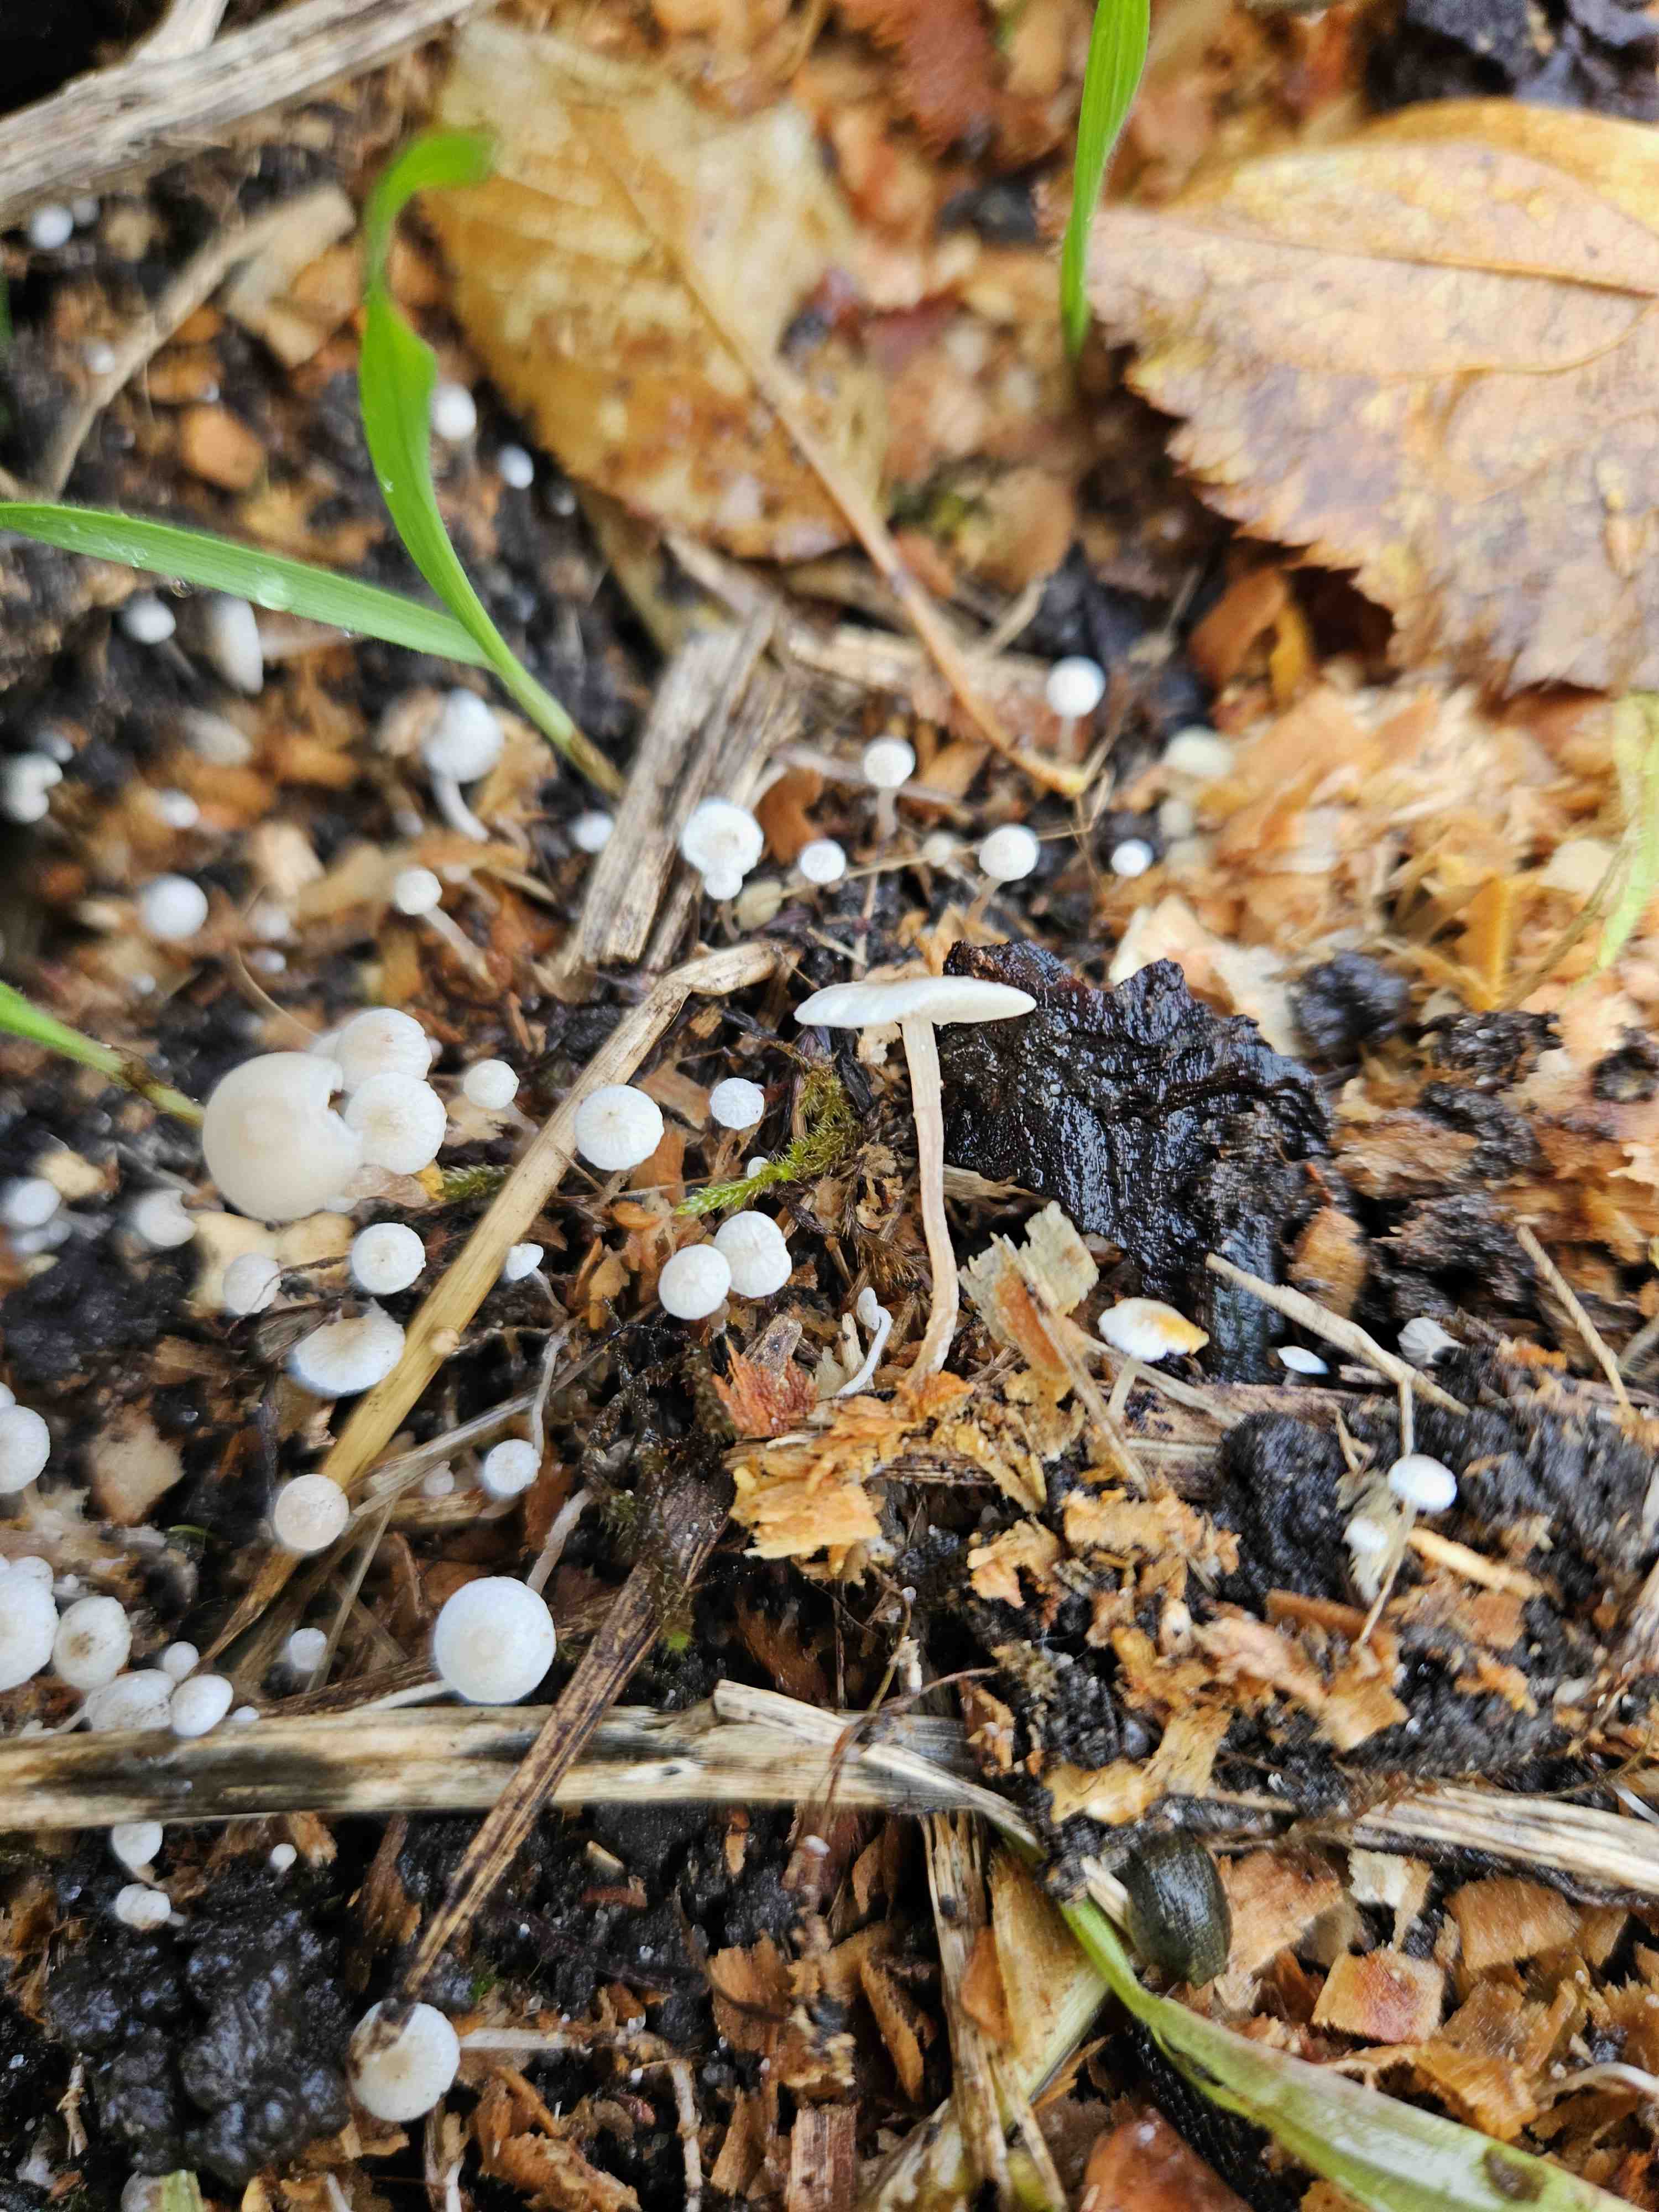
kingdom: Fungi
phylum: Basidiomycota
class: Agaricomycetes
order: Agaricales
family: Tricholomataceae
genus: Collybia
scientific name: Collybia cookei
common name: gulknoldet lighat
